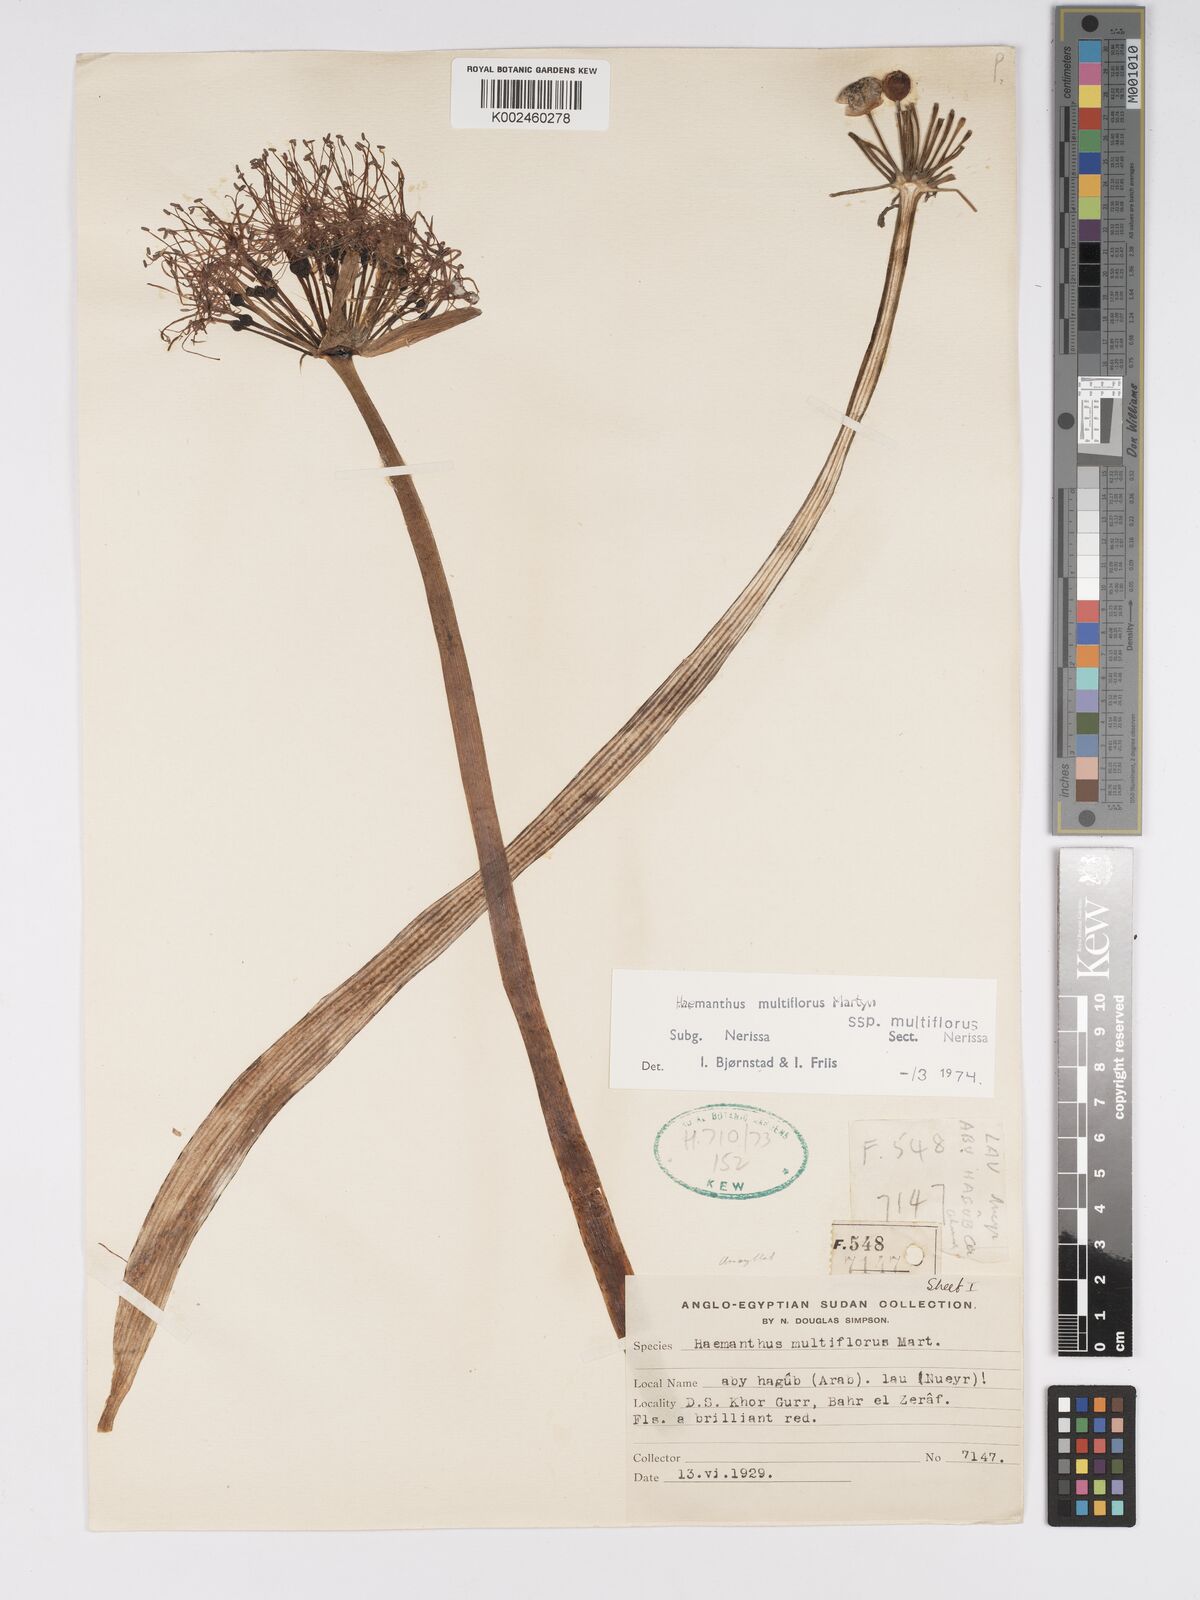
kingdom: Plantae
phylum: Tracheophyta
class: Liliopsida
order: Asparagales
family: Amaryllidaceae
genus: Scadoxus
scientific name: Scadoxus multiflorus
